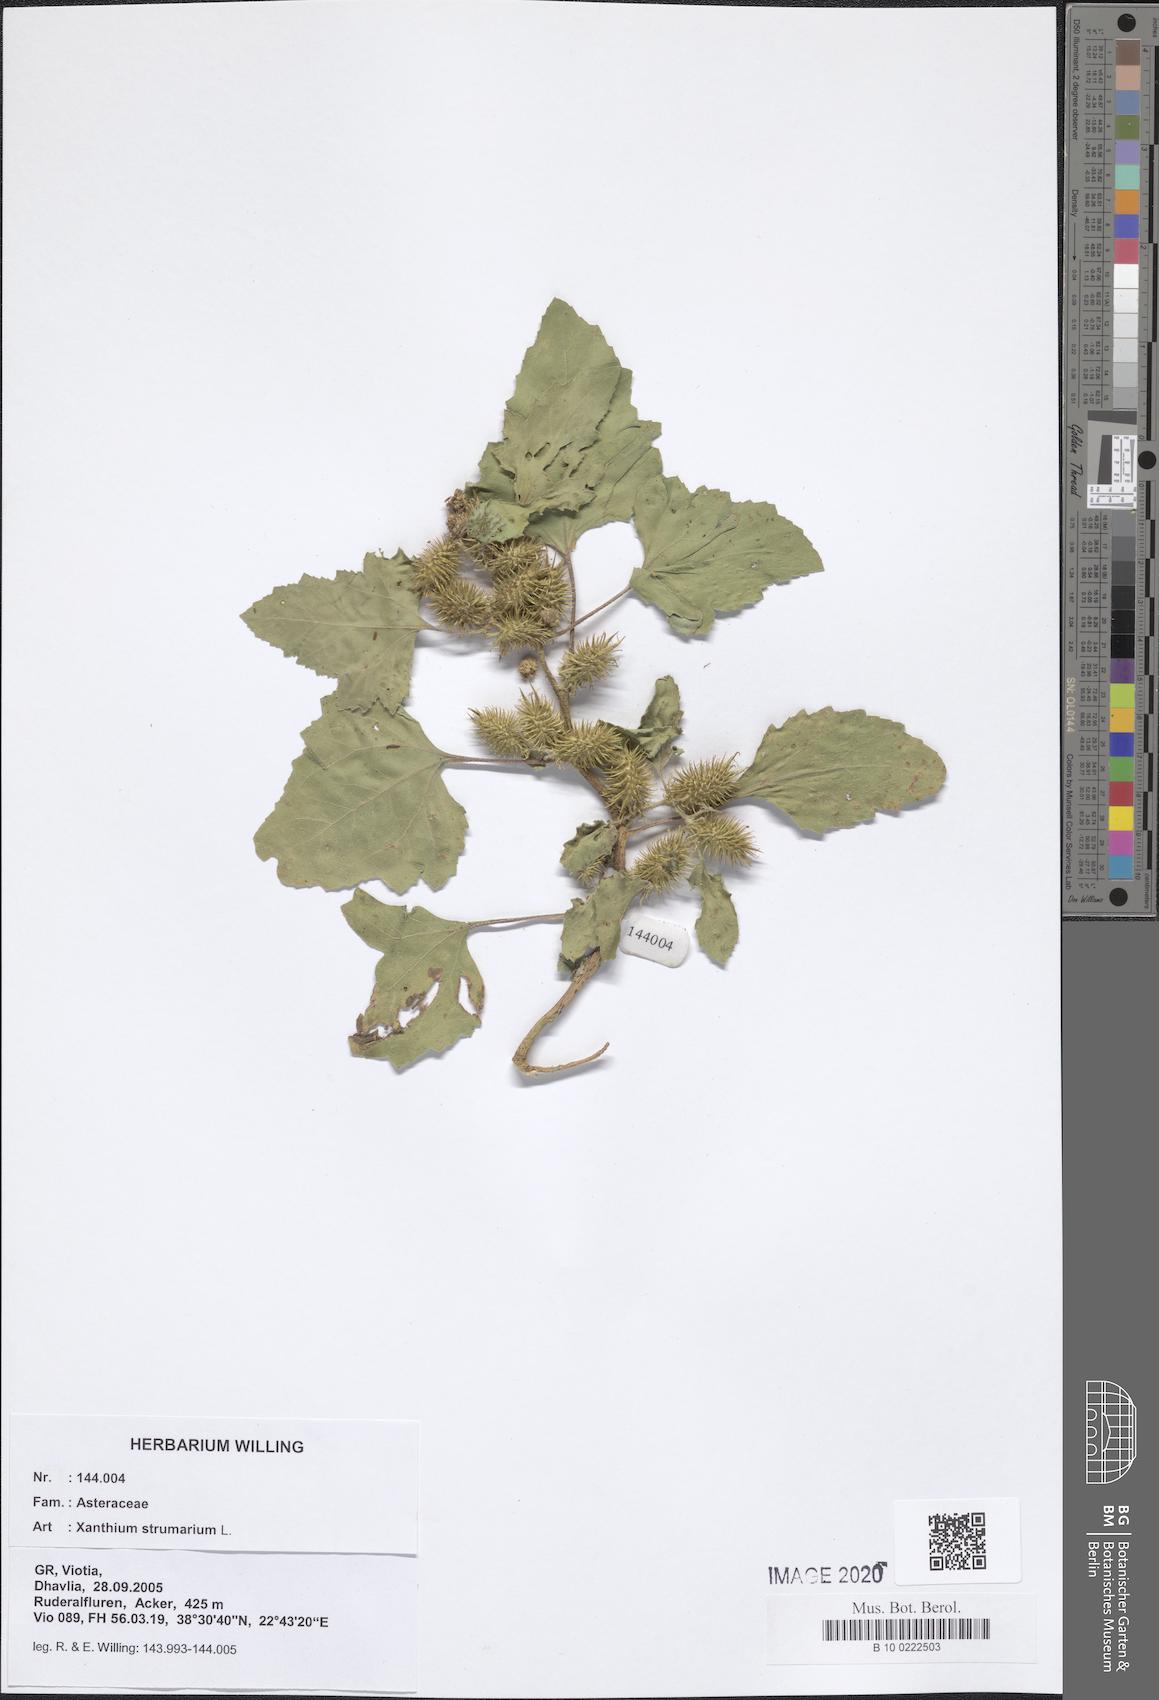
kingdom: Plantae
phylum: Tracheophyta
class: Magnoliopsida
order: Asterales
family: Asteraceae
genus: Xanthium
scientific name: Xanthium strumarium
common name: Rough cocklebur
